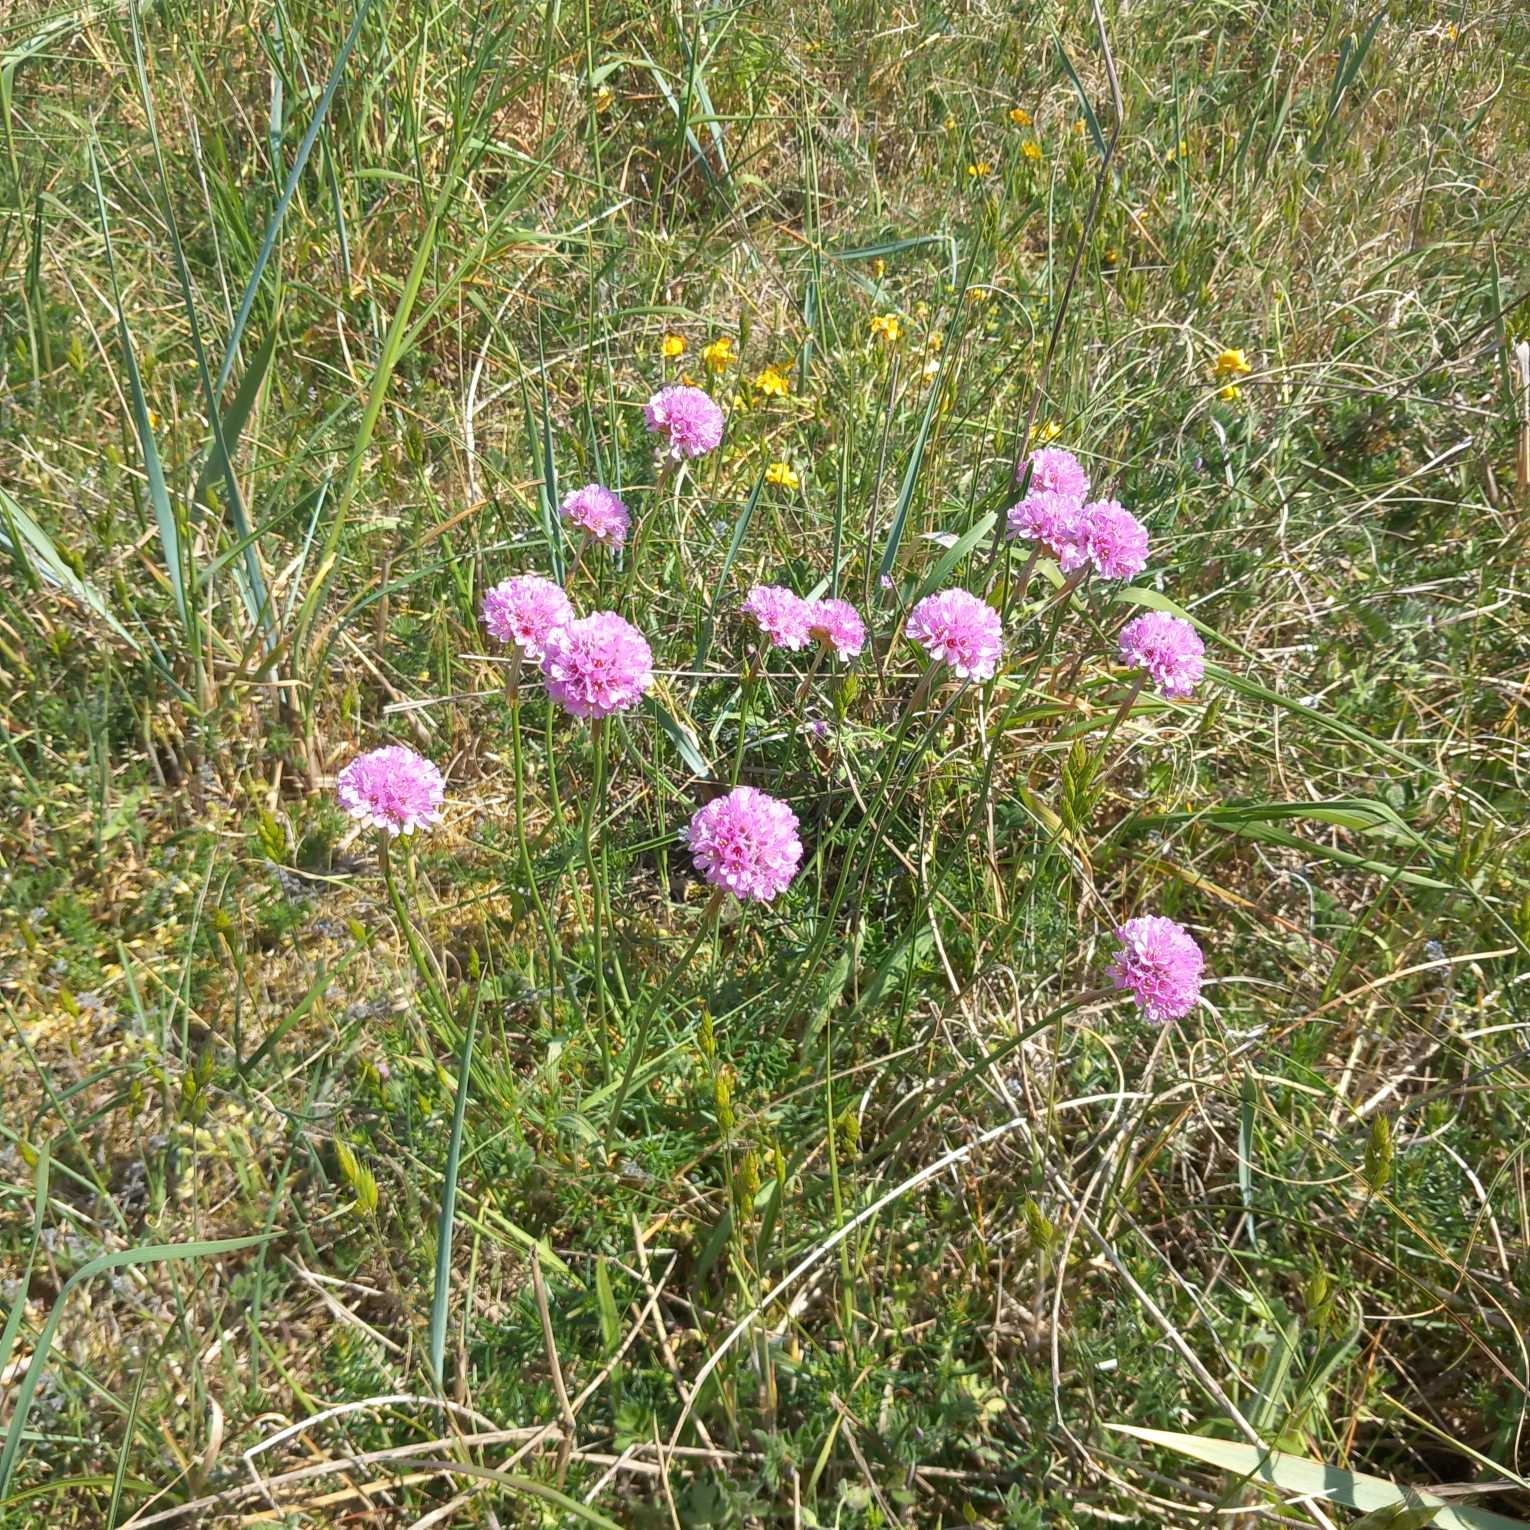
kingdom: Plantae
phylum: Tracheophyta
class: Magnoliopsida
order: Caryophyllales
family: Plumbaginaceae
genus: Armeria
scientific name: Armeria maritima
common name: Engelskgræs
